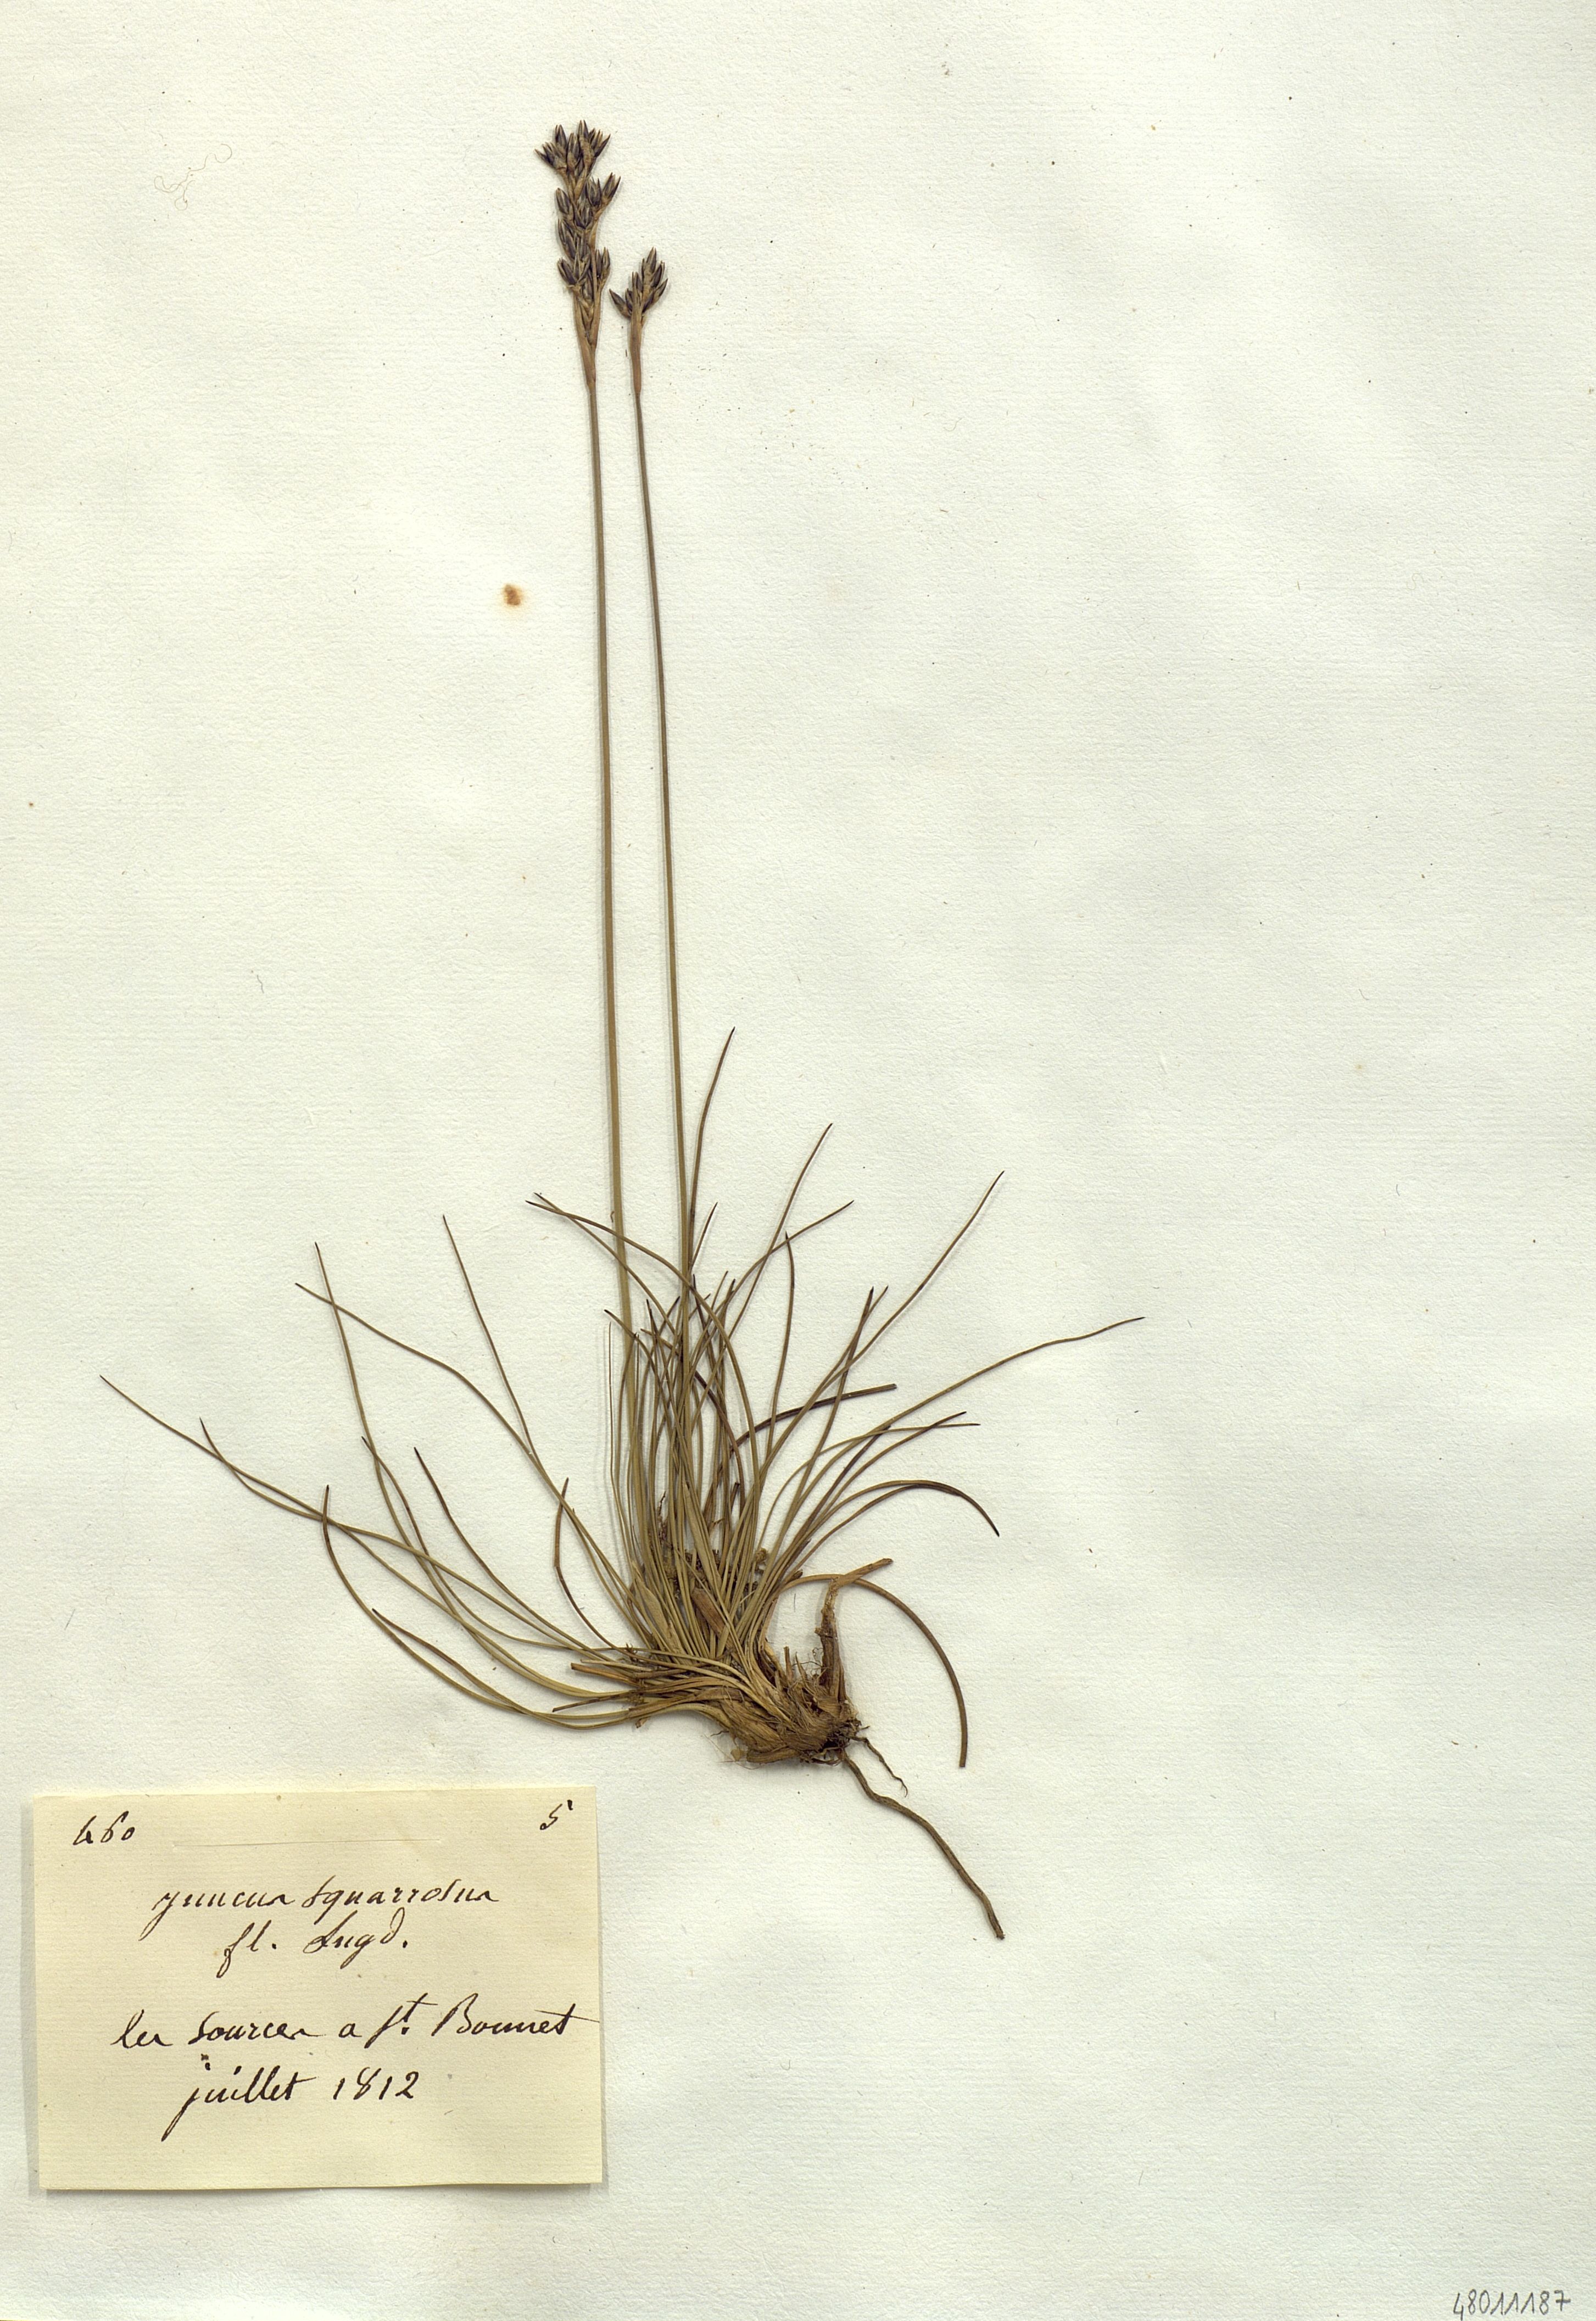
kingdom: Plantae
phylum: Tracheophyta
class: Liliopsida
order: Poales
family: Juncaceae
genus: Juncus
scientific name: Juncus squarrosus
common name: Heath rush
